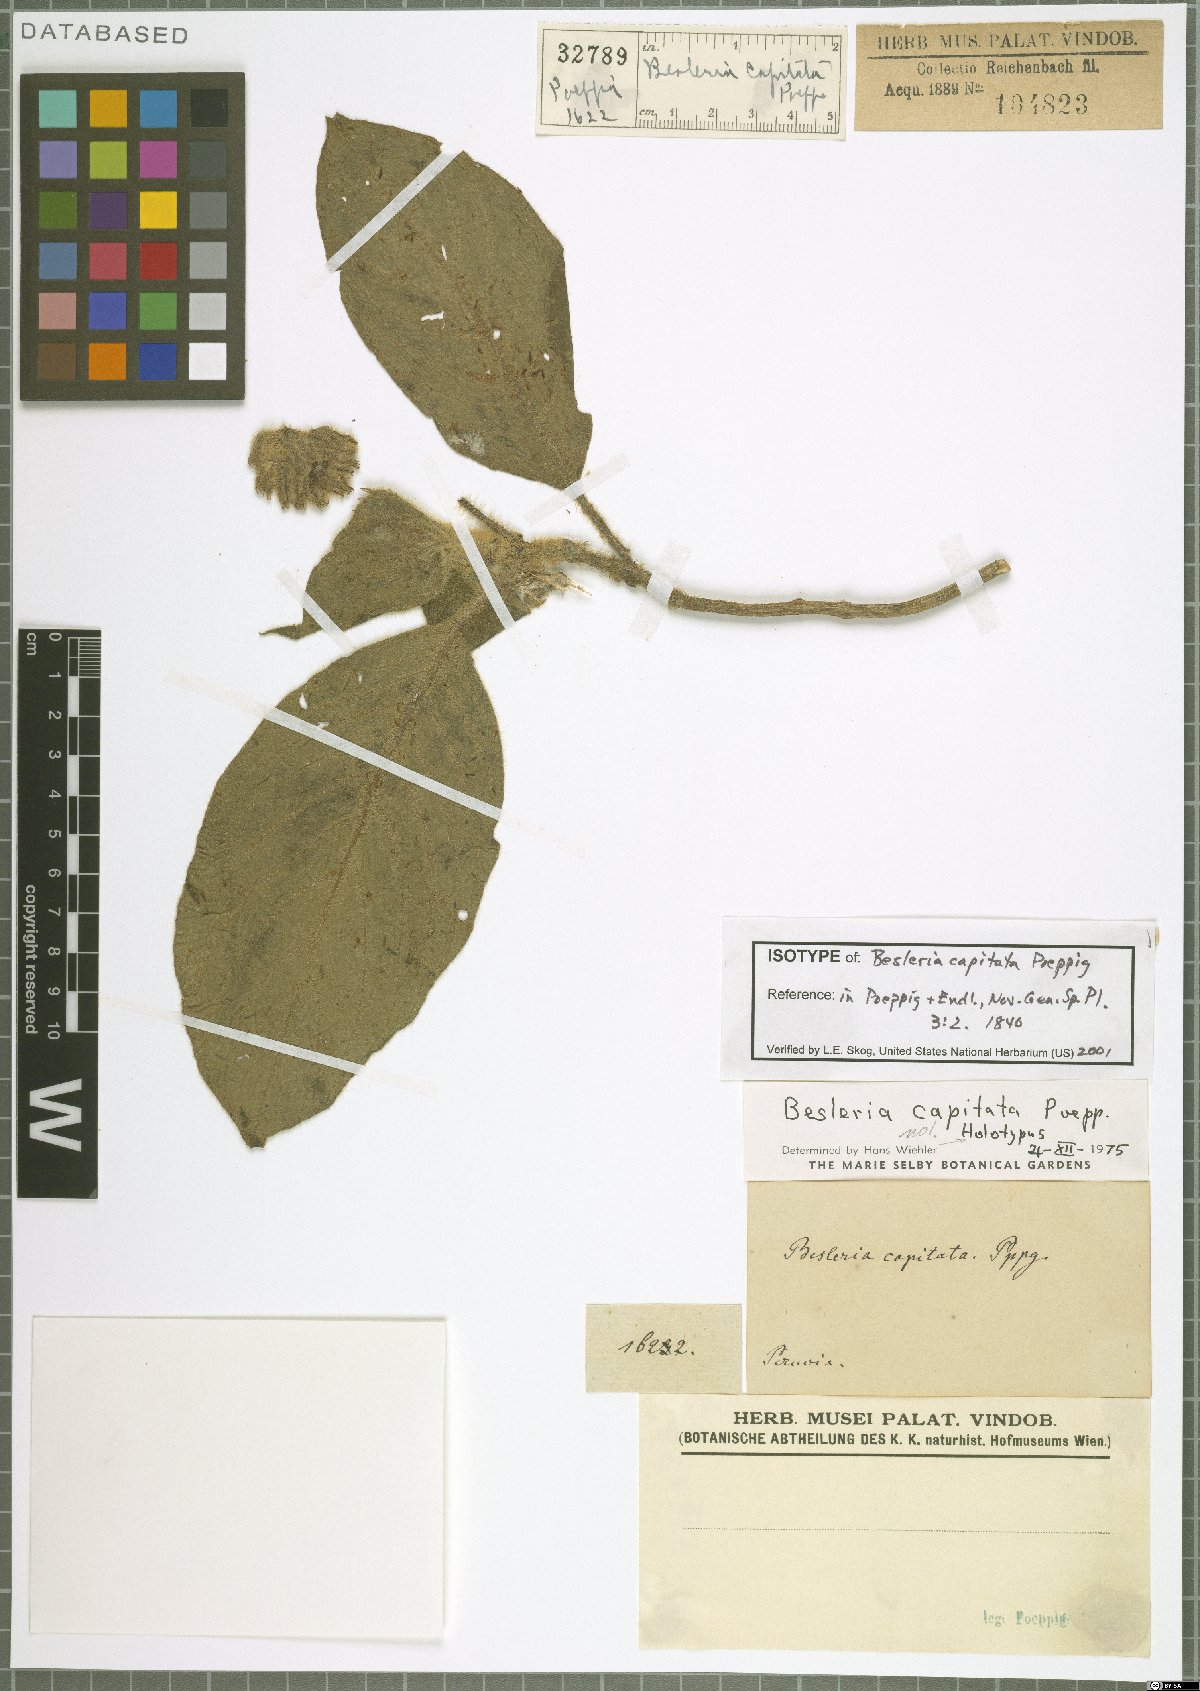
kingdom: Plantae
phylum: Tracheophyta
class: Magnoliopsida
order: Lamiales
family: Gesneriaceae
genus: Besleria
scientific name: Besleria capitata
